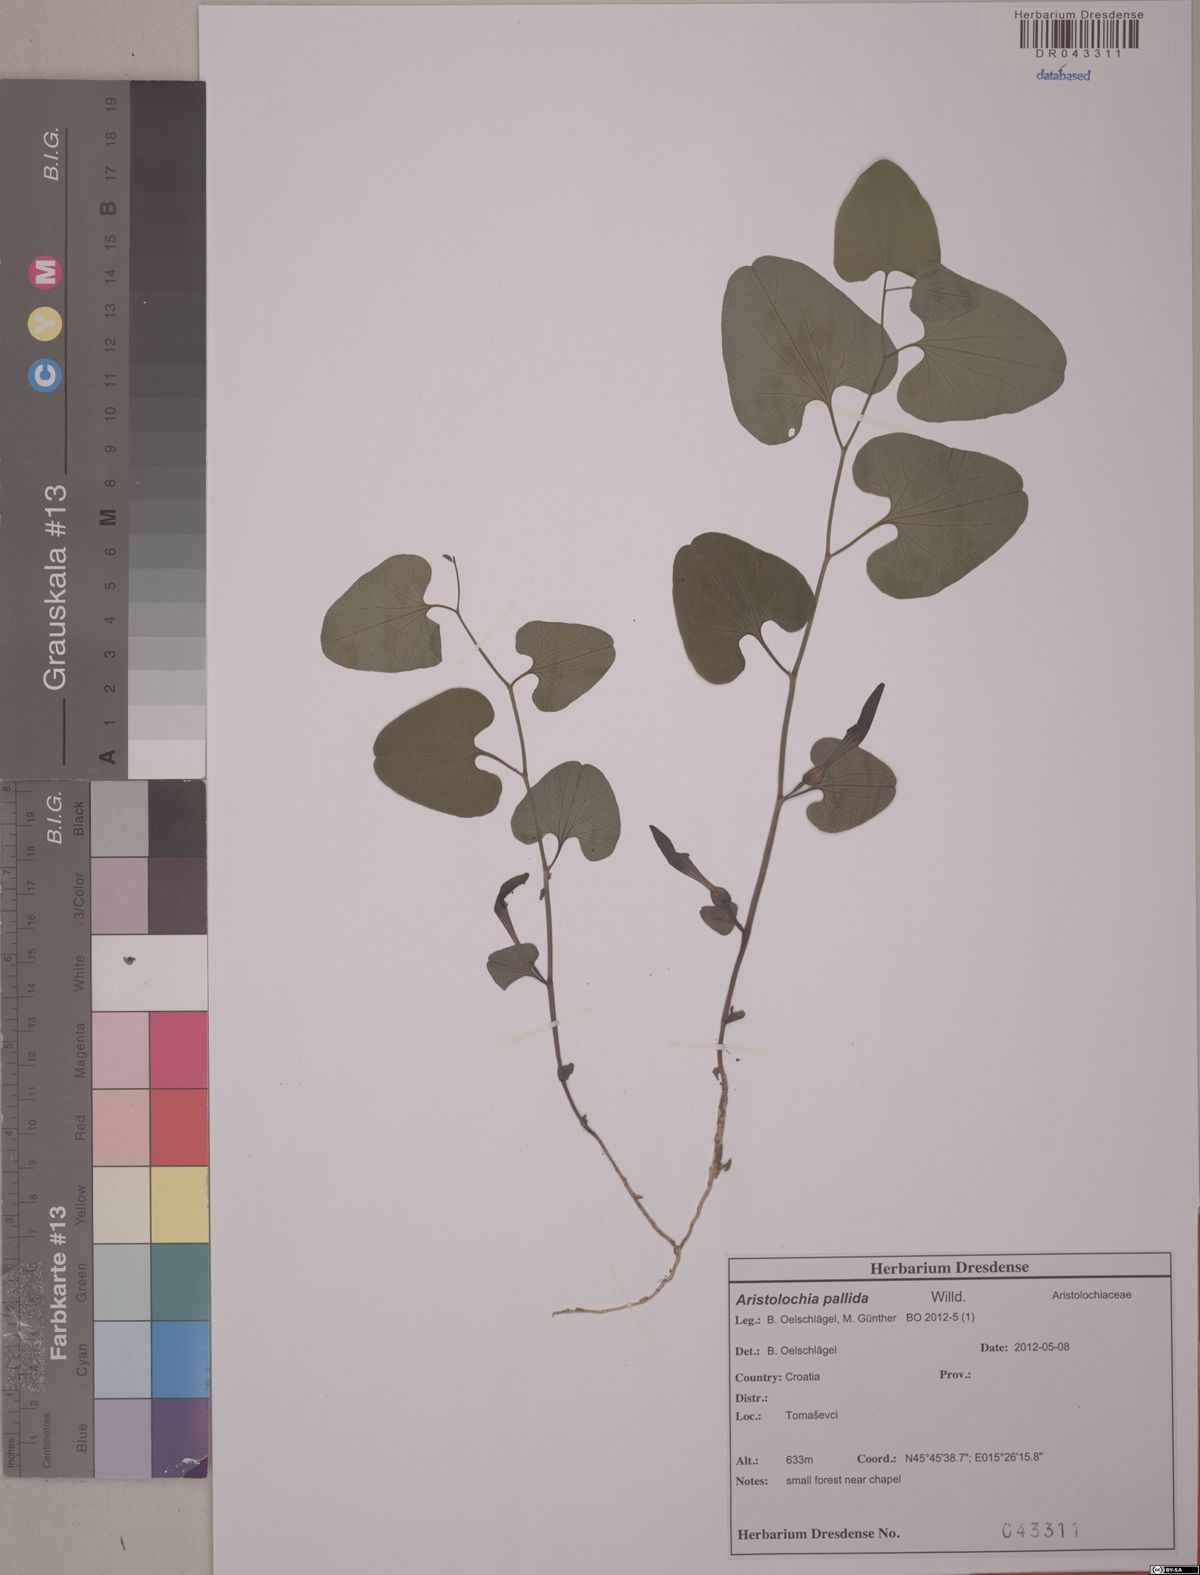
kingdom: Plantae
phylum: Tracheophyta
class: Magnoliopsida
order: Piperales
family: Aristolochiaceae
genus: Aristolochia
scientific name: Aristolochia pallida
